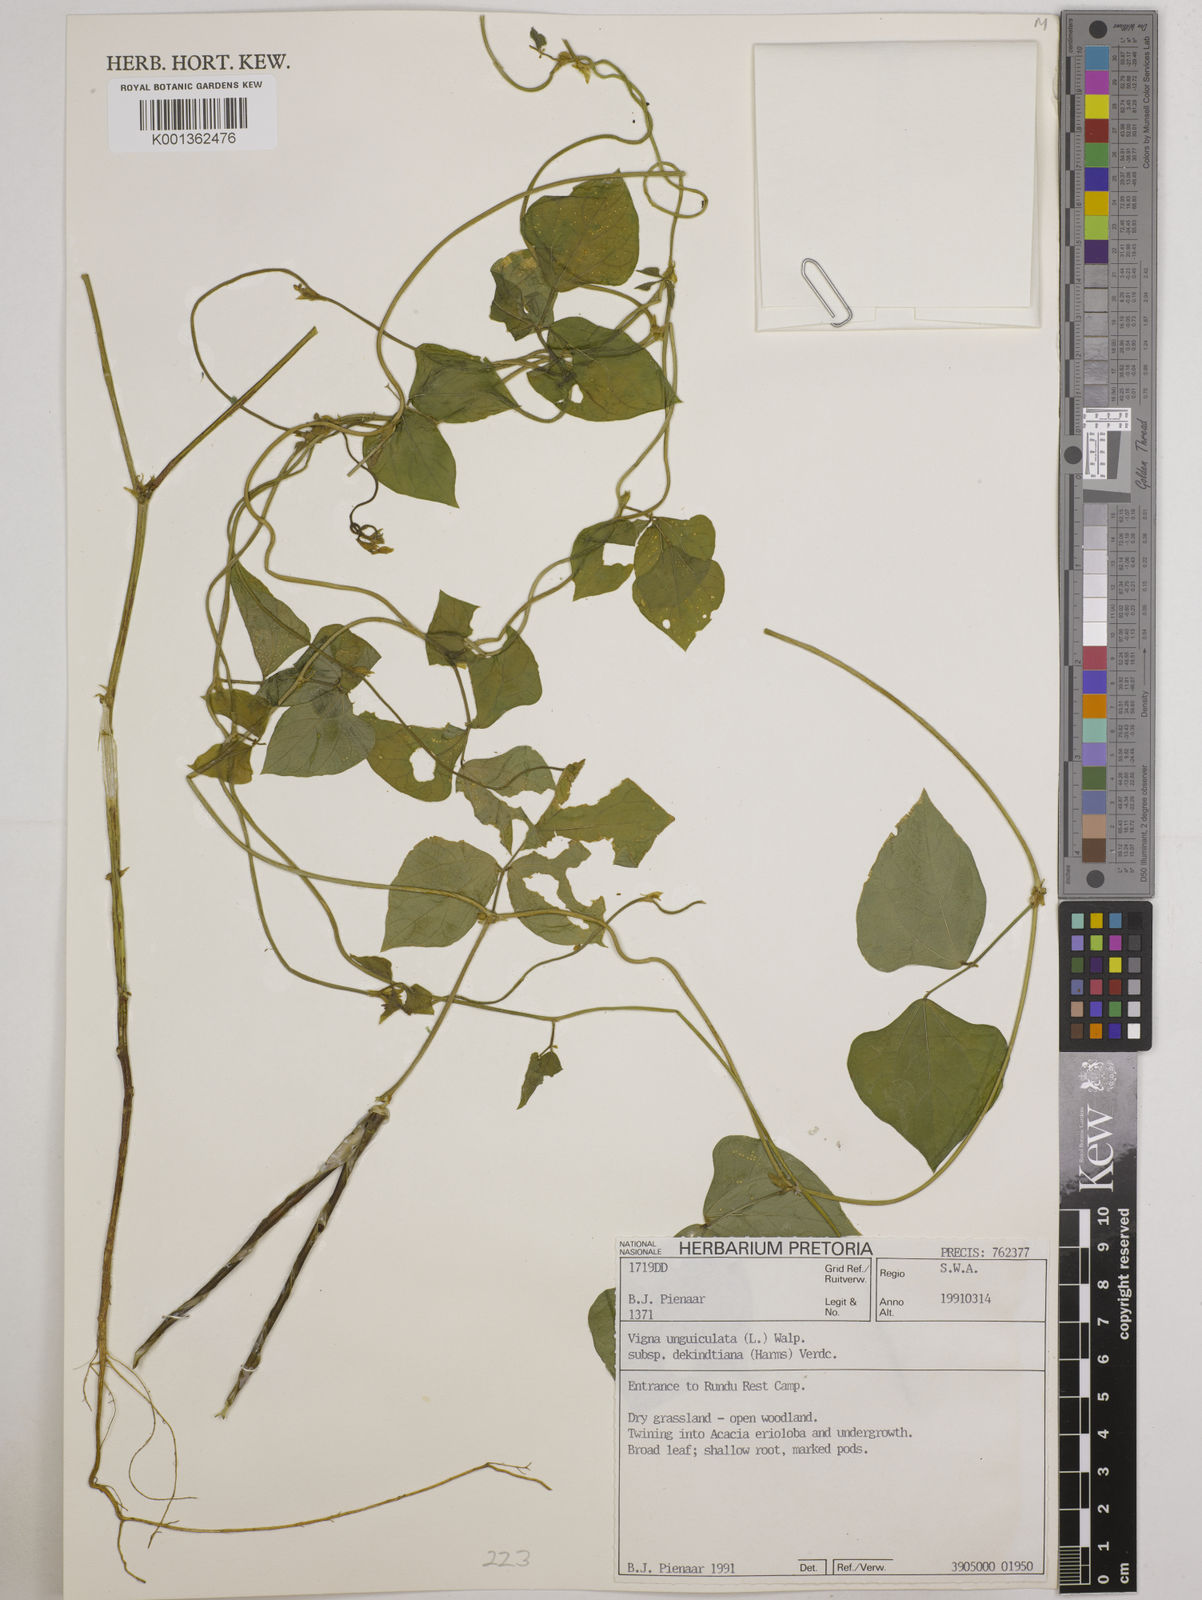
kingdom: Plantae
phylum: Tracheophyta
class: Magnoliopsida
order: Fabales
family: Fabaceae
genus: Vigna
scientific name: Vigna
